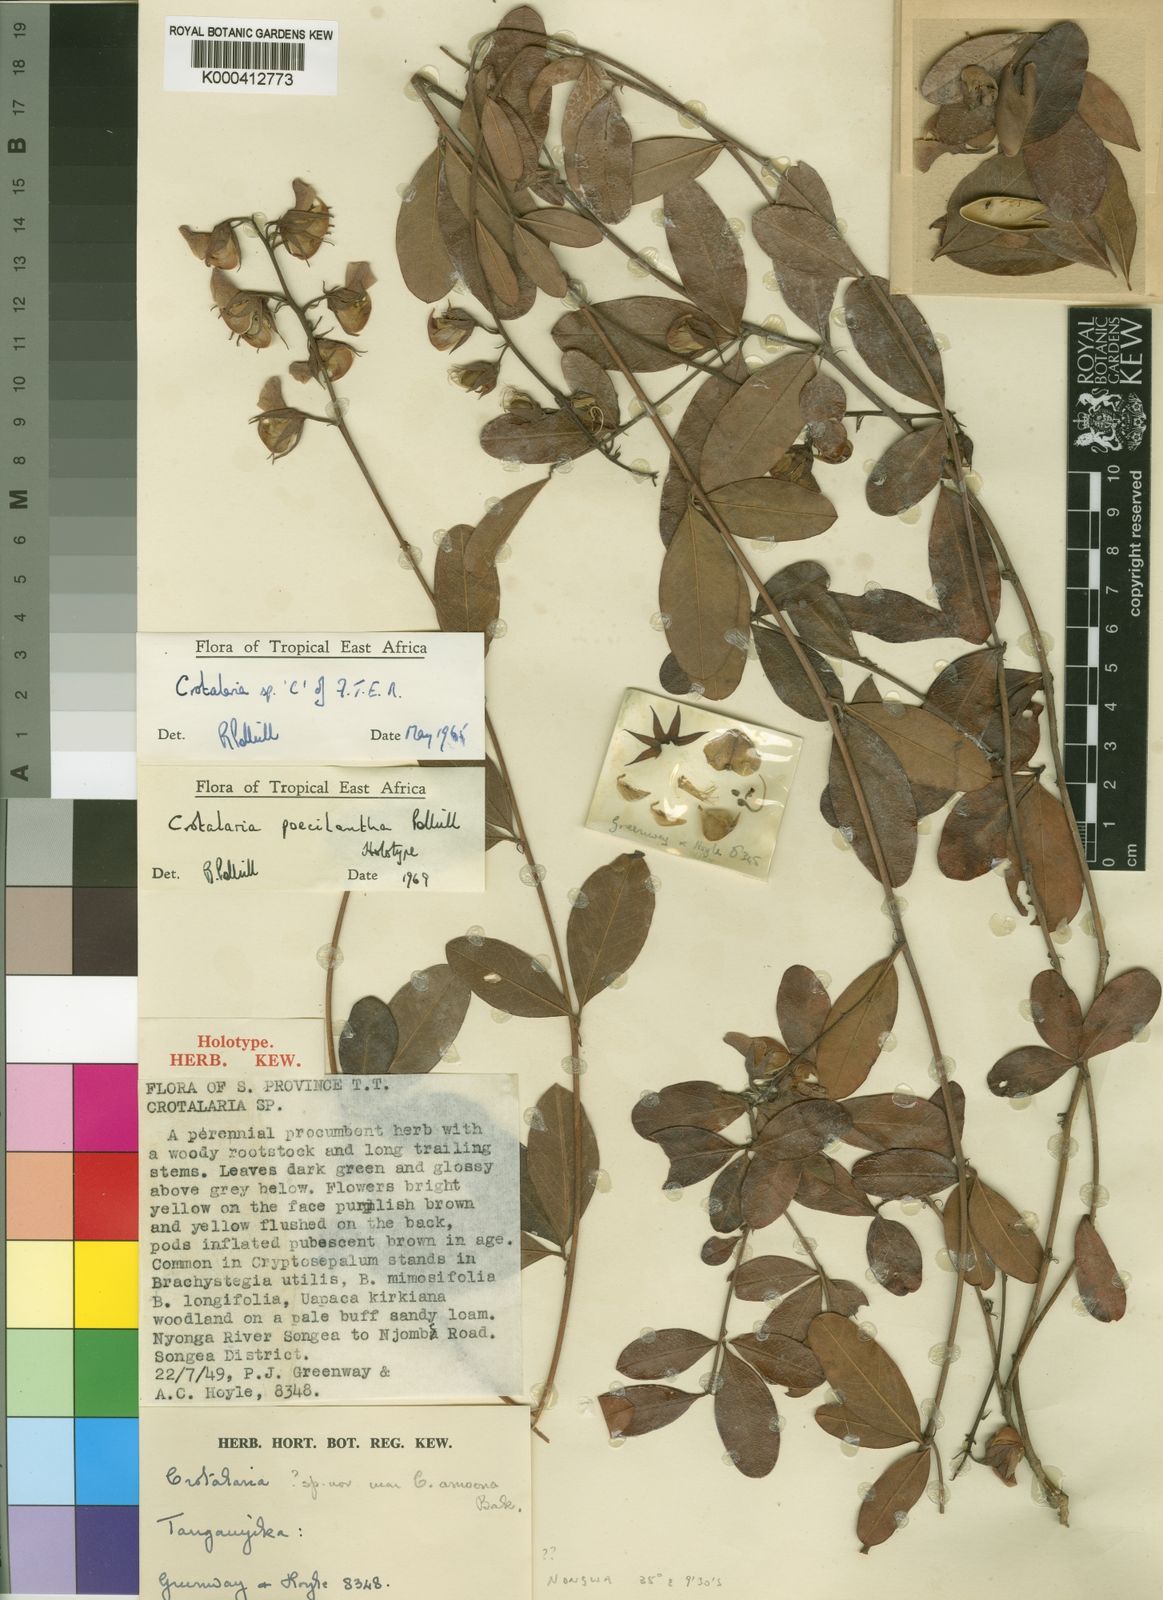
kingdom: Plantae
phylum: Tracheophyta
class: Magnoliopsida
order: Fabales
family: Fabaceae
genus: Crotalaria
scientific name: Crotalaria poecilantha
